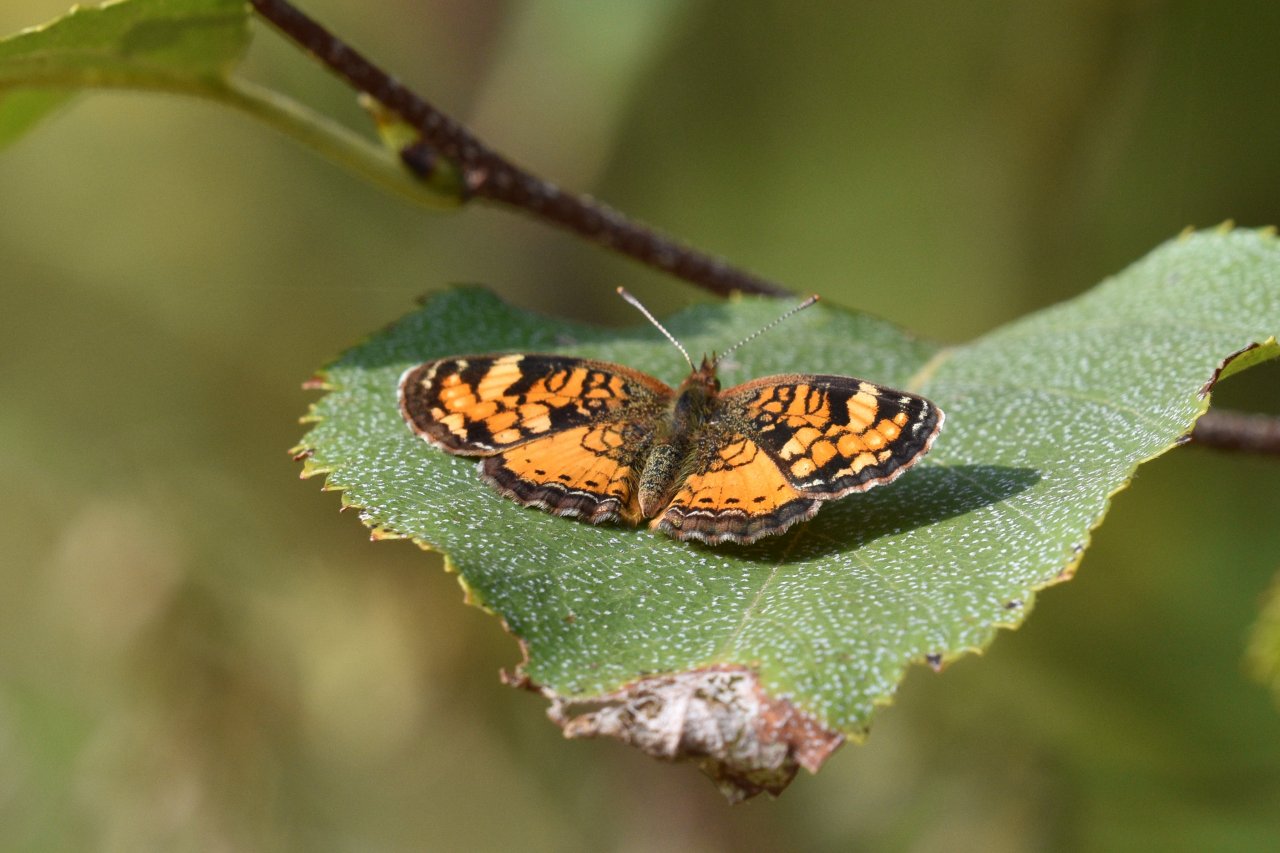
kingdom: Animalia
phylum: Arthropoda
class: Insecta
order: Lepidoptera
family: Nymphalidae
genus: Phyciodes
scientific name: Phyciodes tharos
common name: Northern Crescent
